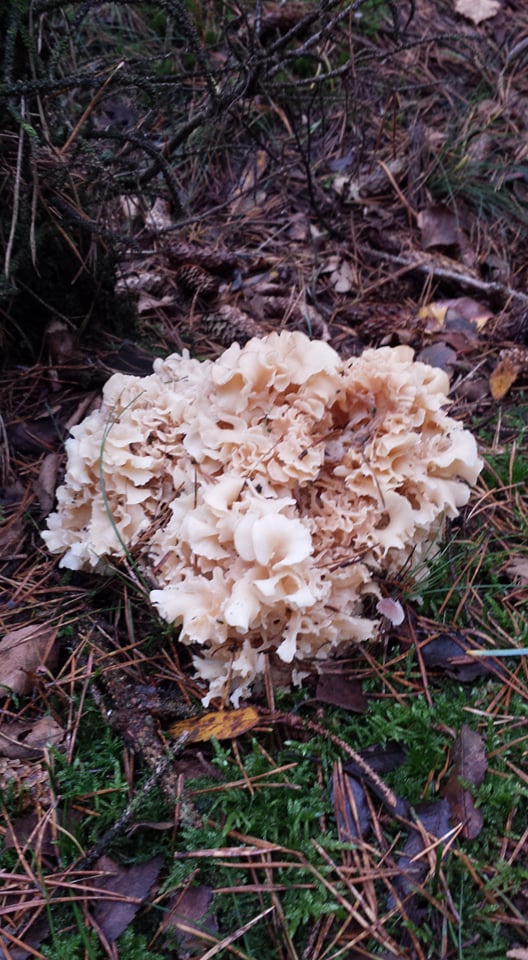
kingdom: Fungi
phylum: Basidiomycota
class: Agaricomycetes
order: Polyporales
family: Sparassidaceae
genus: Sparassis
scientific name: Sparassis crispa
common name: kruset blomkålssvamp
